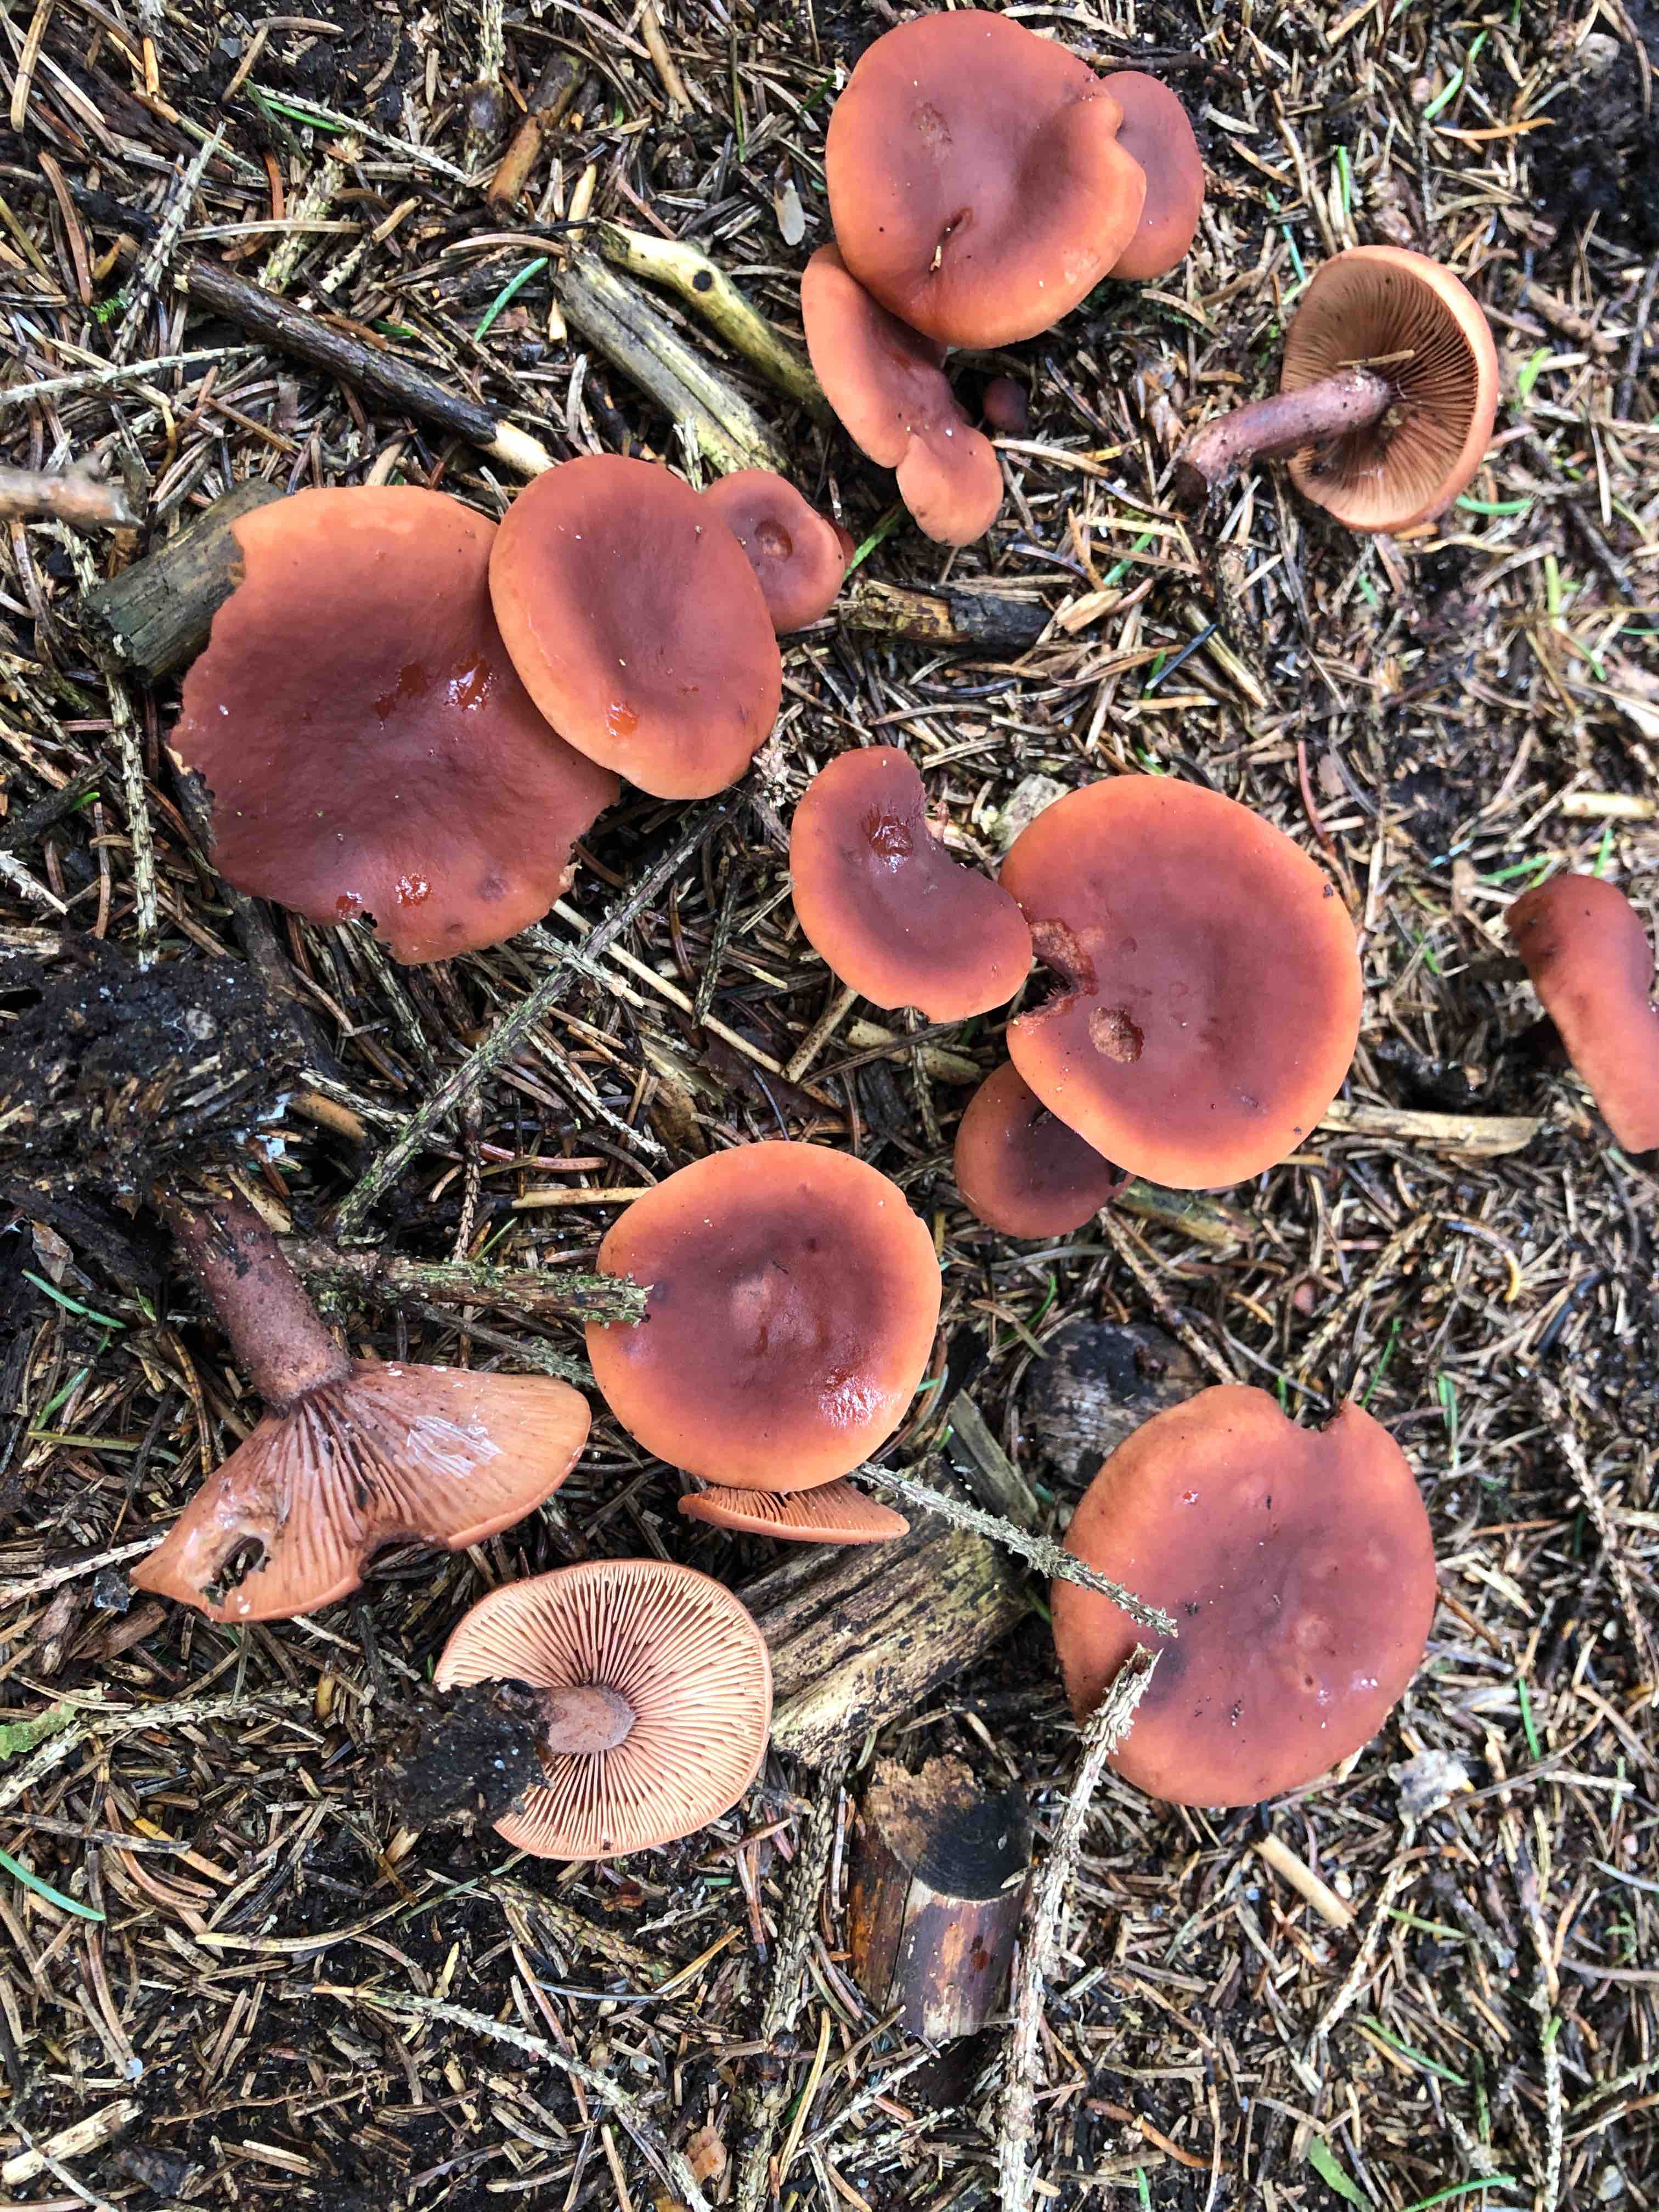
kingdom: Fungi
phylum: Basidiomycota
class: Agaricomycetes
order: Russulales
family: Russulaceae
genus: Lactarius
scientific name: Lactarius camphoratus
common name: kamfer-mælkehat
